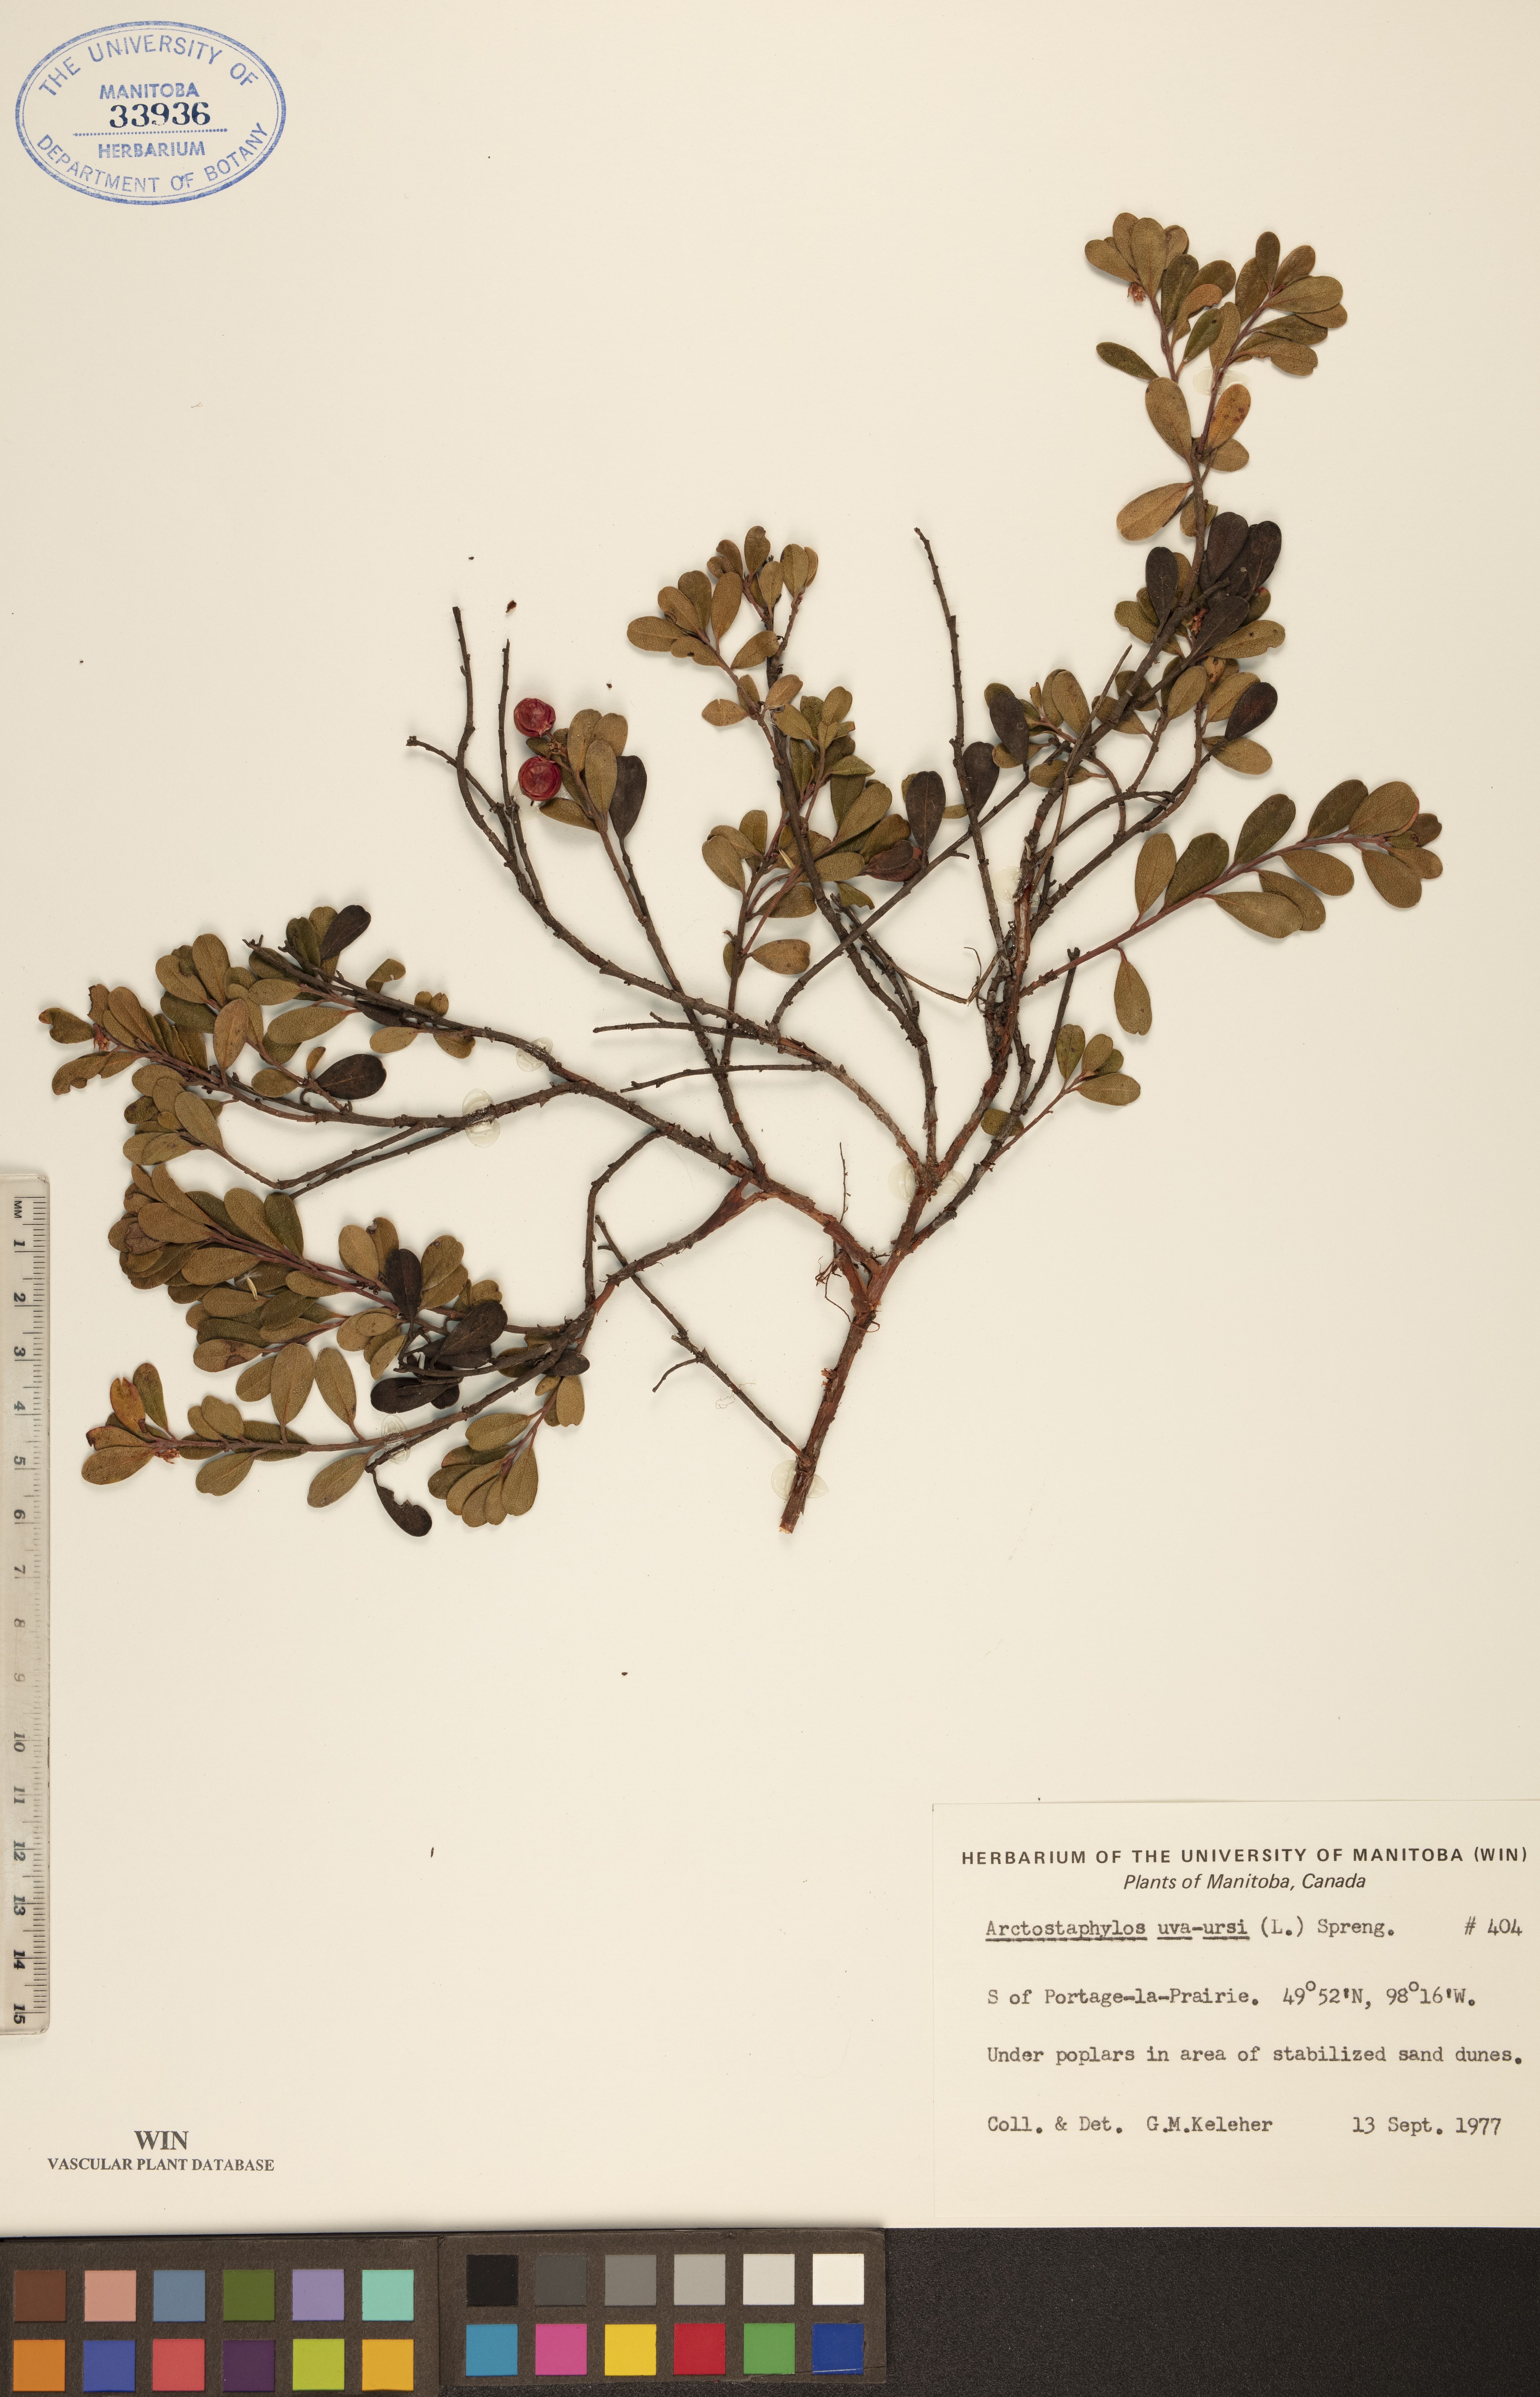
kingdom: Plantae
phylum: Tracheophyta
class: Magnoliopsida
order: Ericales
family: Ericaceae
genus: Arctostaphylos
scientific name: Arctostaphylos uva-ursi
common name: Bearberry
